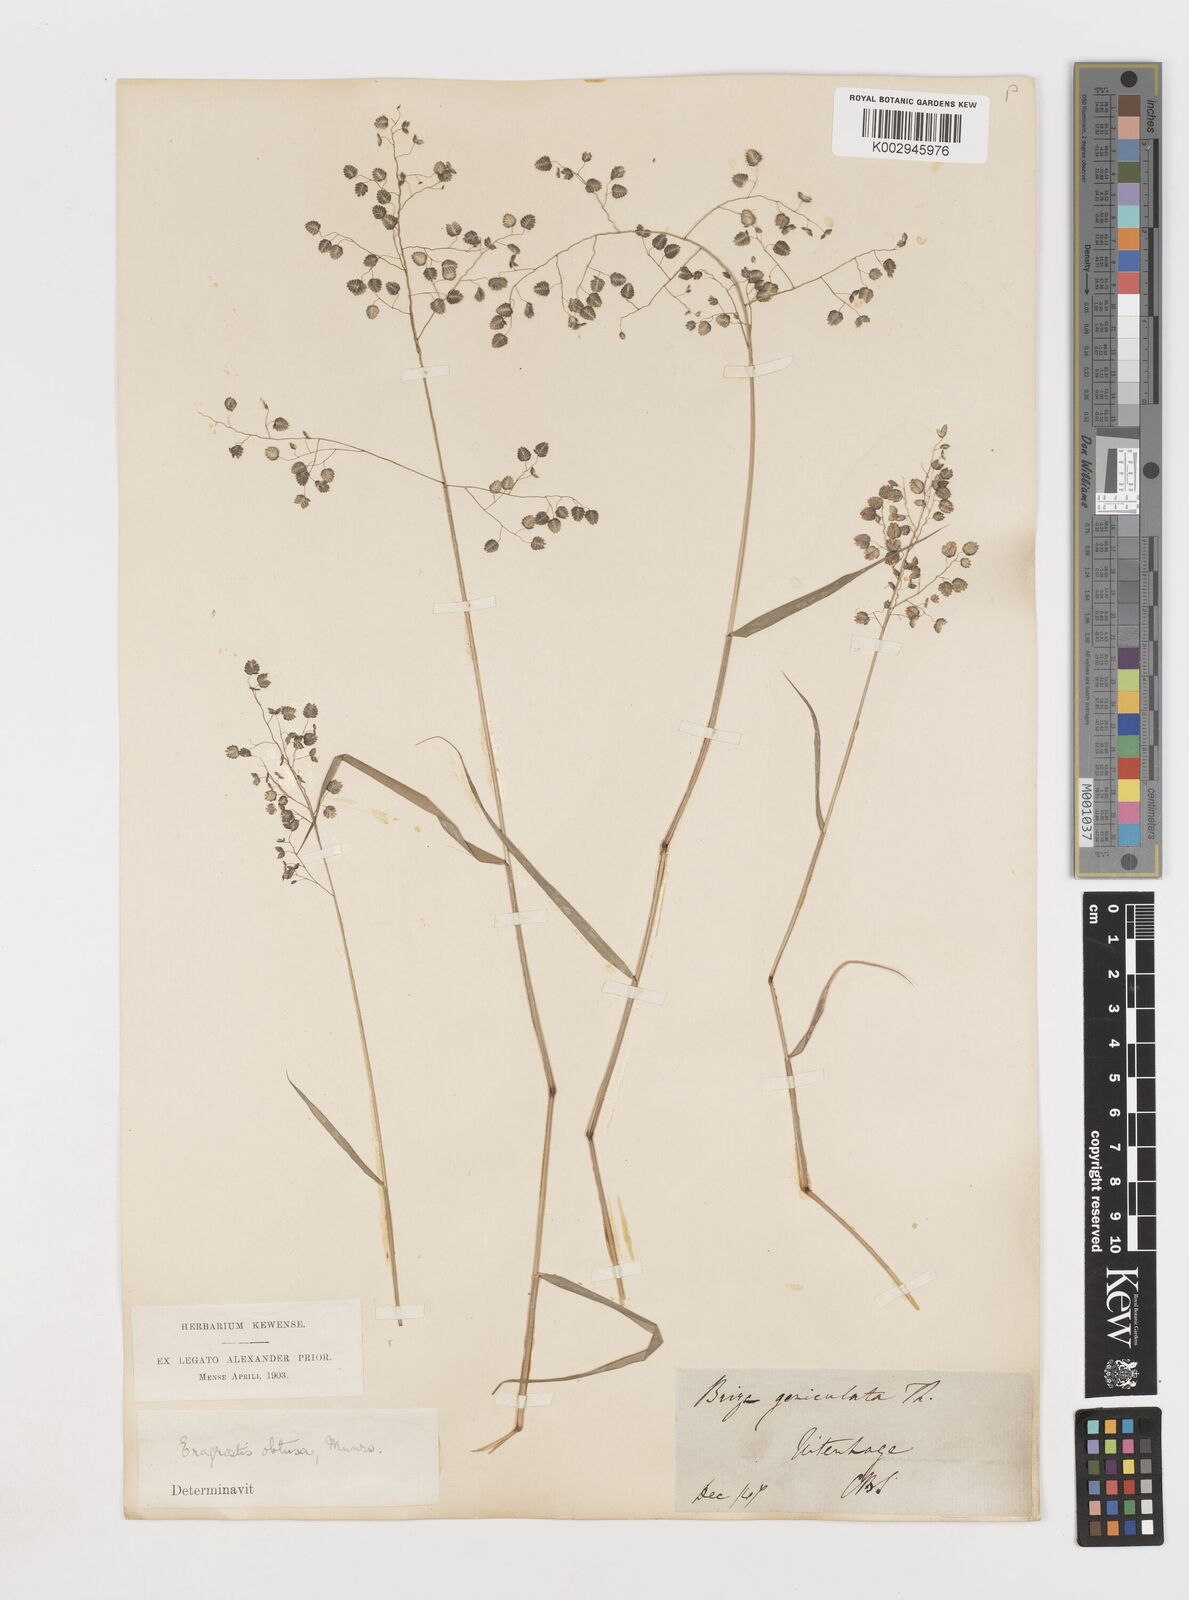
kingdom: Plantae
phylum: Tracheophyta
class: Liliopsida
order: Poales
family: Poaceae
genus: Eragrostis
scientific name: Eragrostis obtusa
